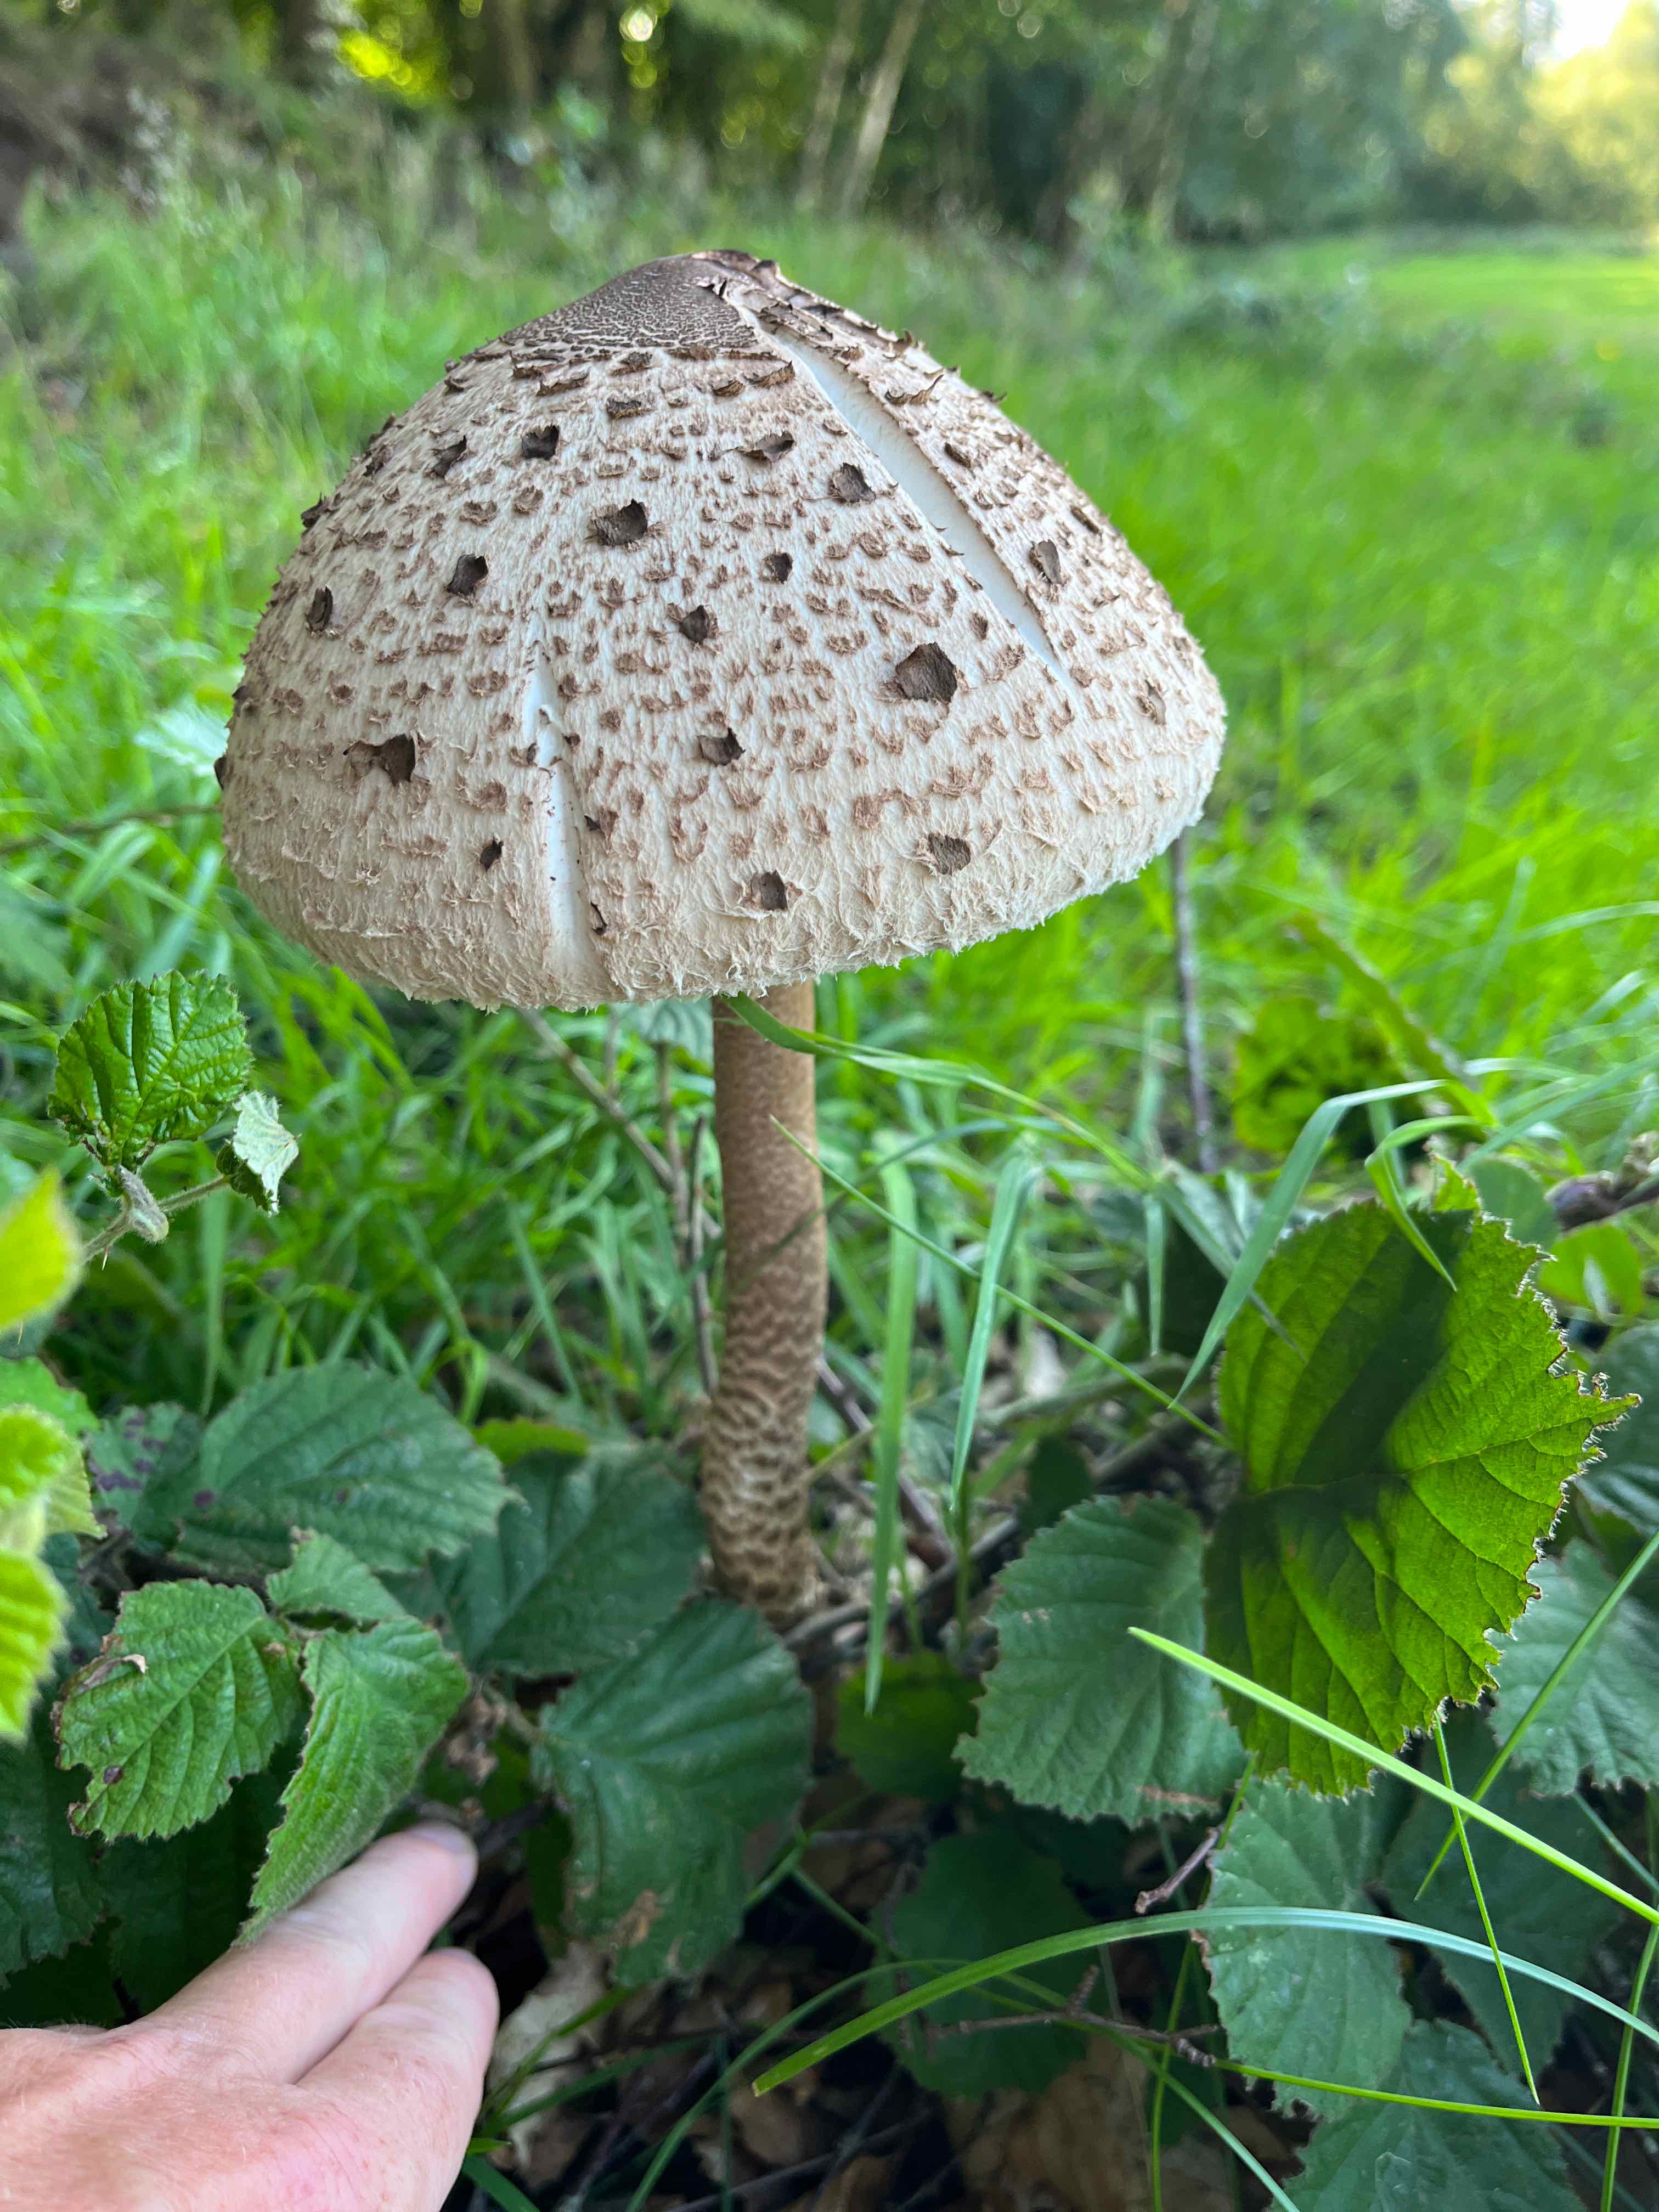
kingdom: Fungi
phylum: Basidiomycota
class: Agaricomycetes
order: Agaricales
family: Agaricaceae
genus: Macrolepiota
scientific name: Macrolepiota procera
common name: stor kæmpeparasolhat
